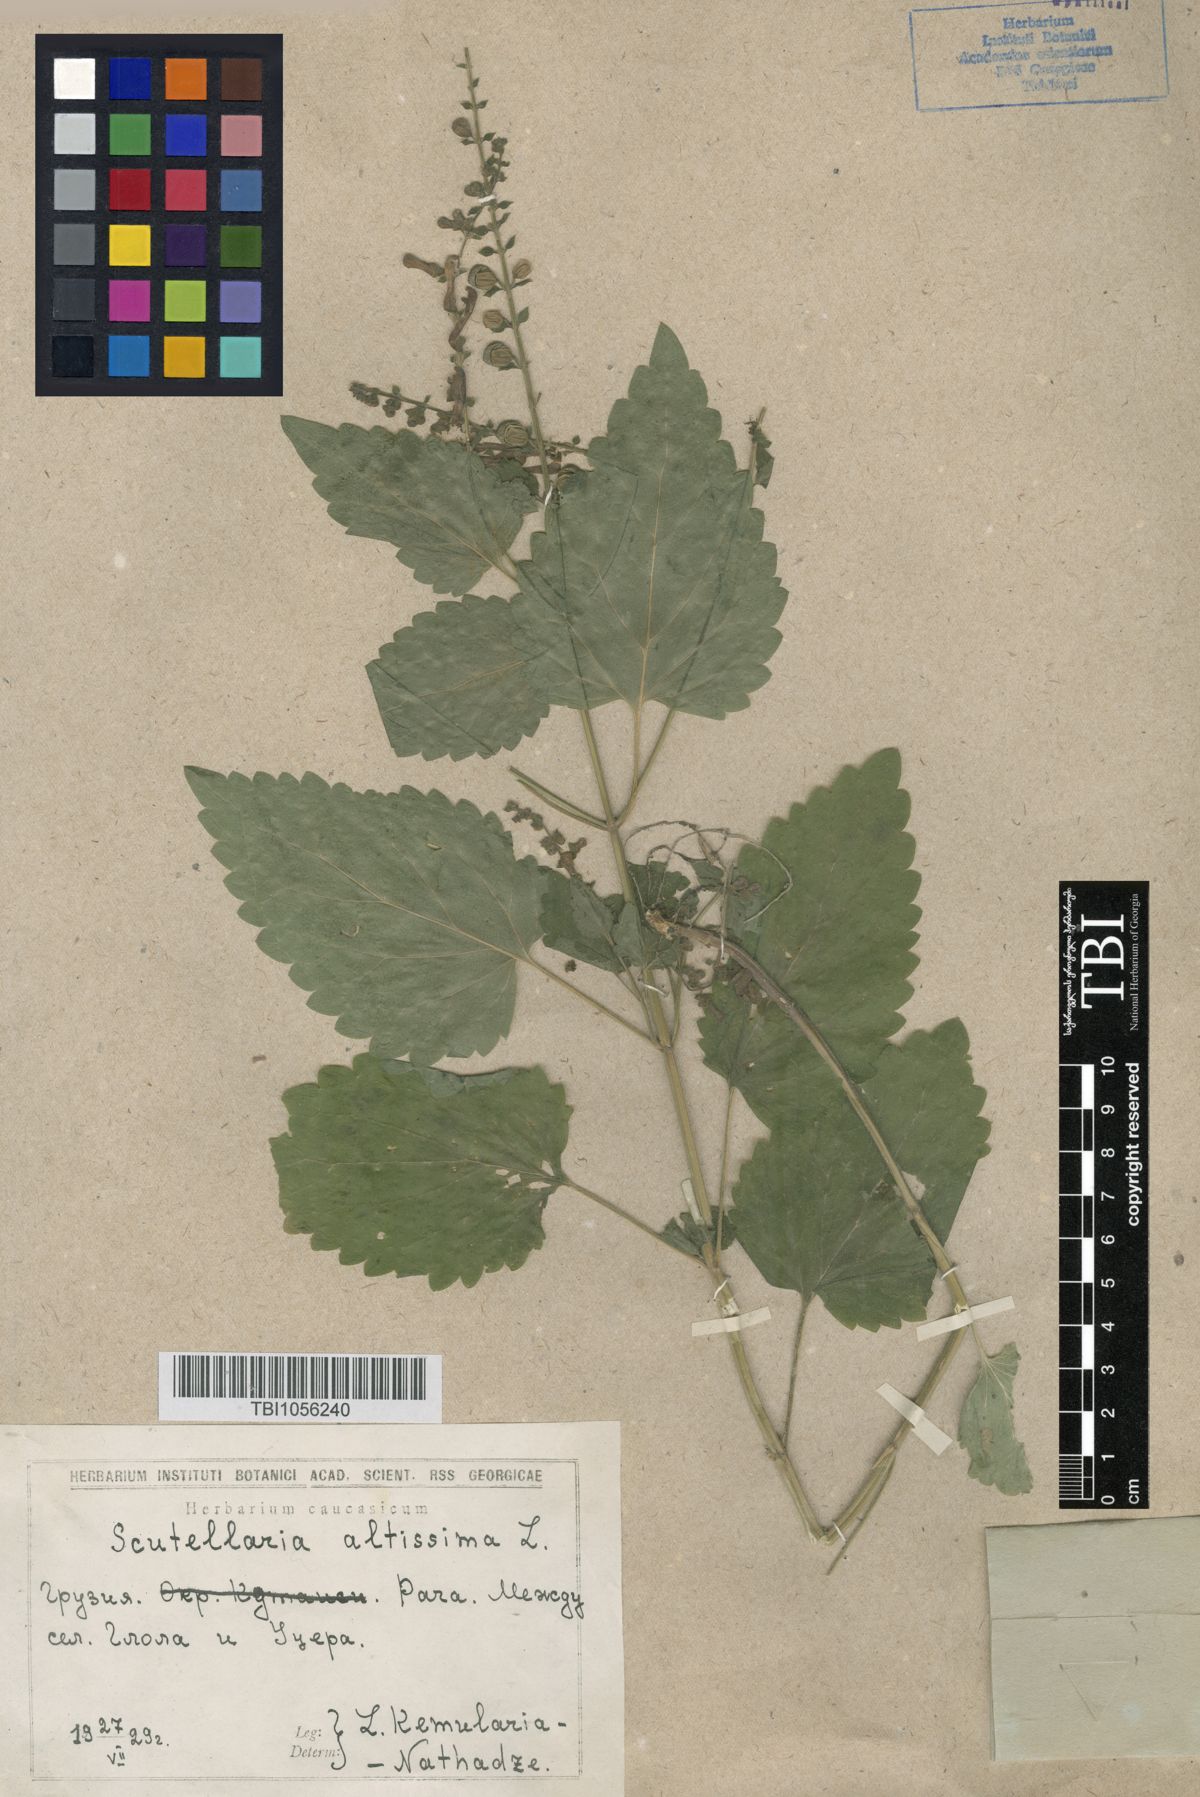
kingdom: Plantae
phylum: Tracheophyta
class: Magnoliopsida
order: Lamiales
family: Lamiaceae
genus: Scutellaria
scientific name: Scutellaria altissima
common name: Somerset skullcap
